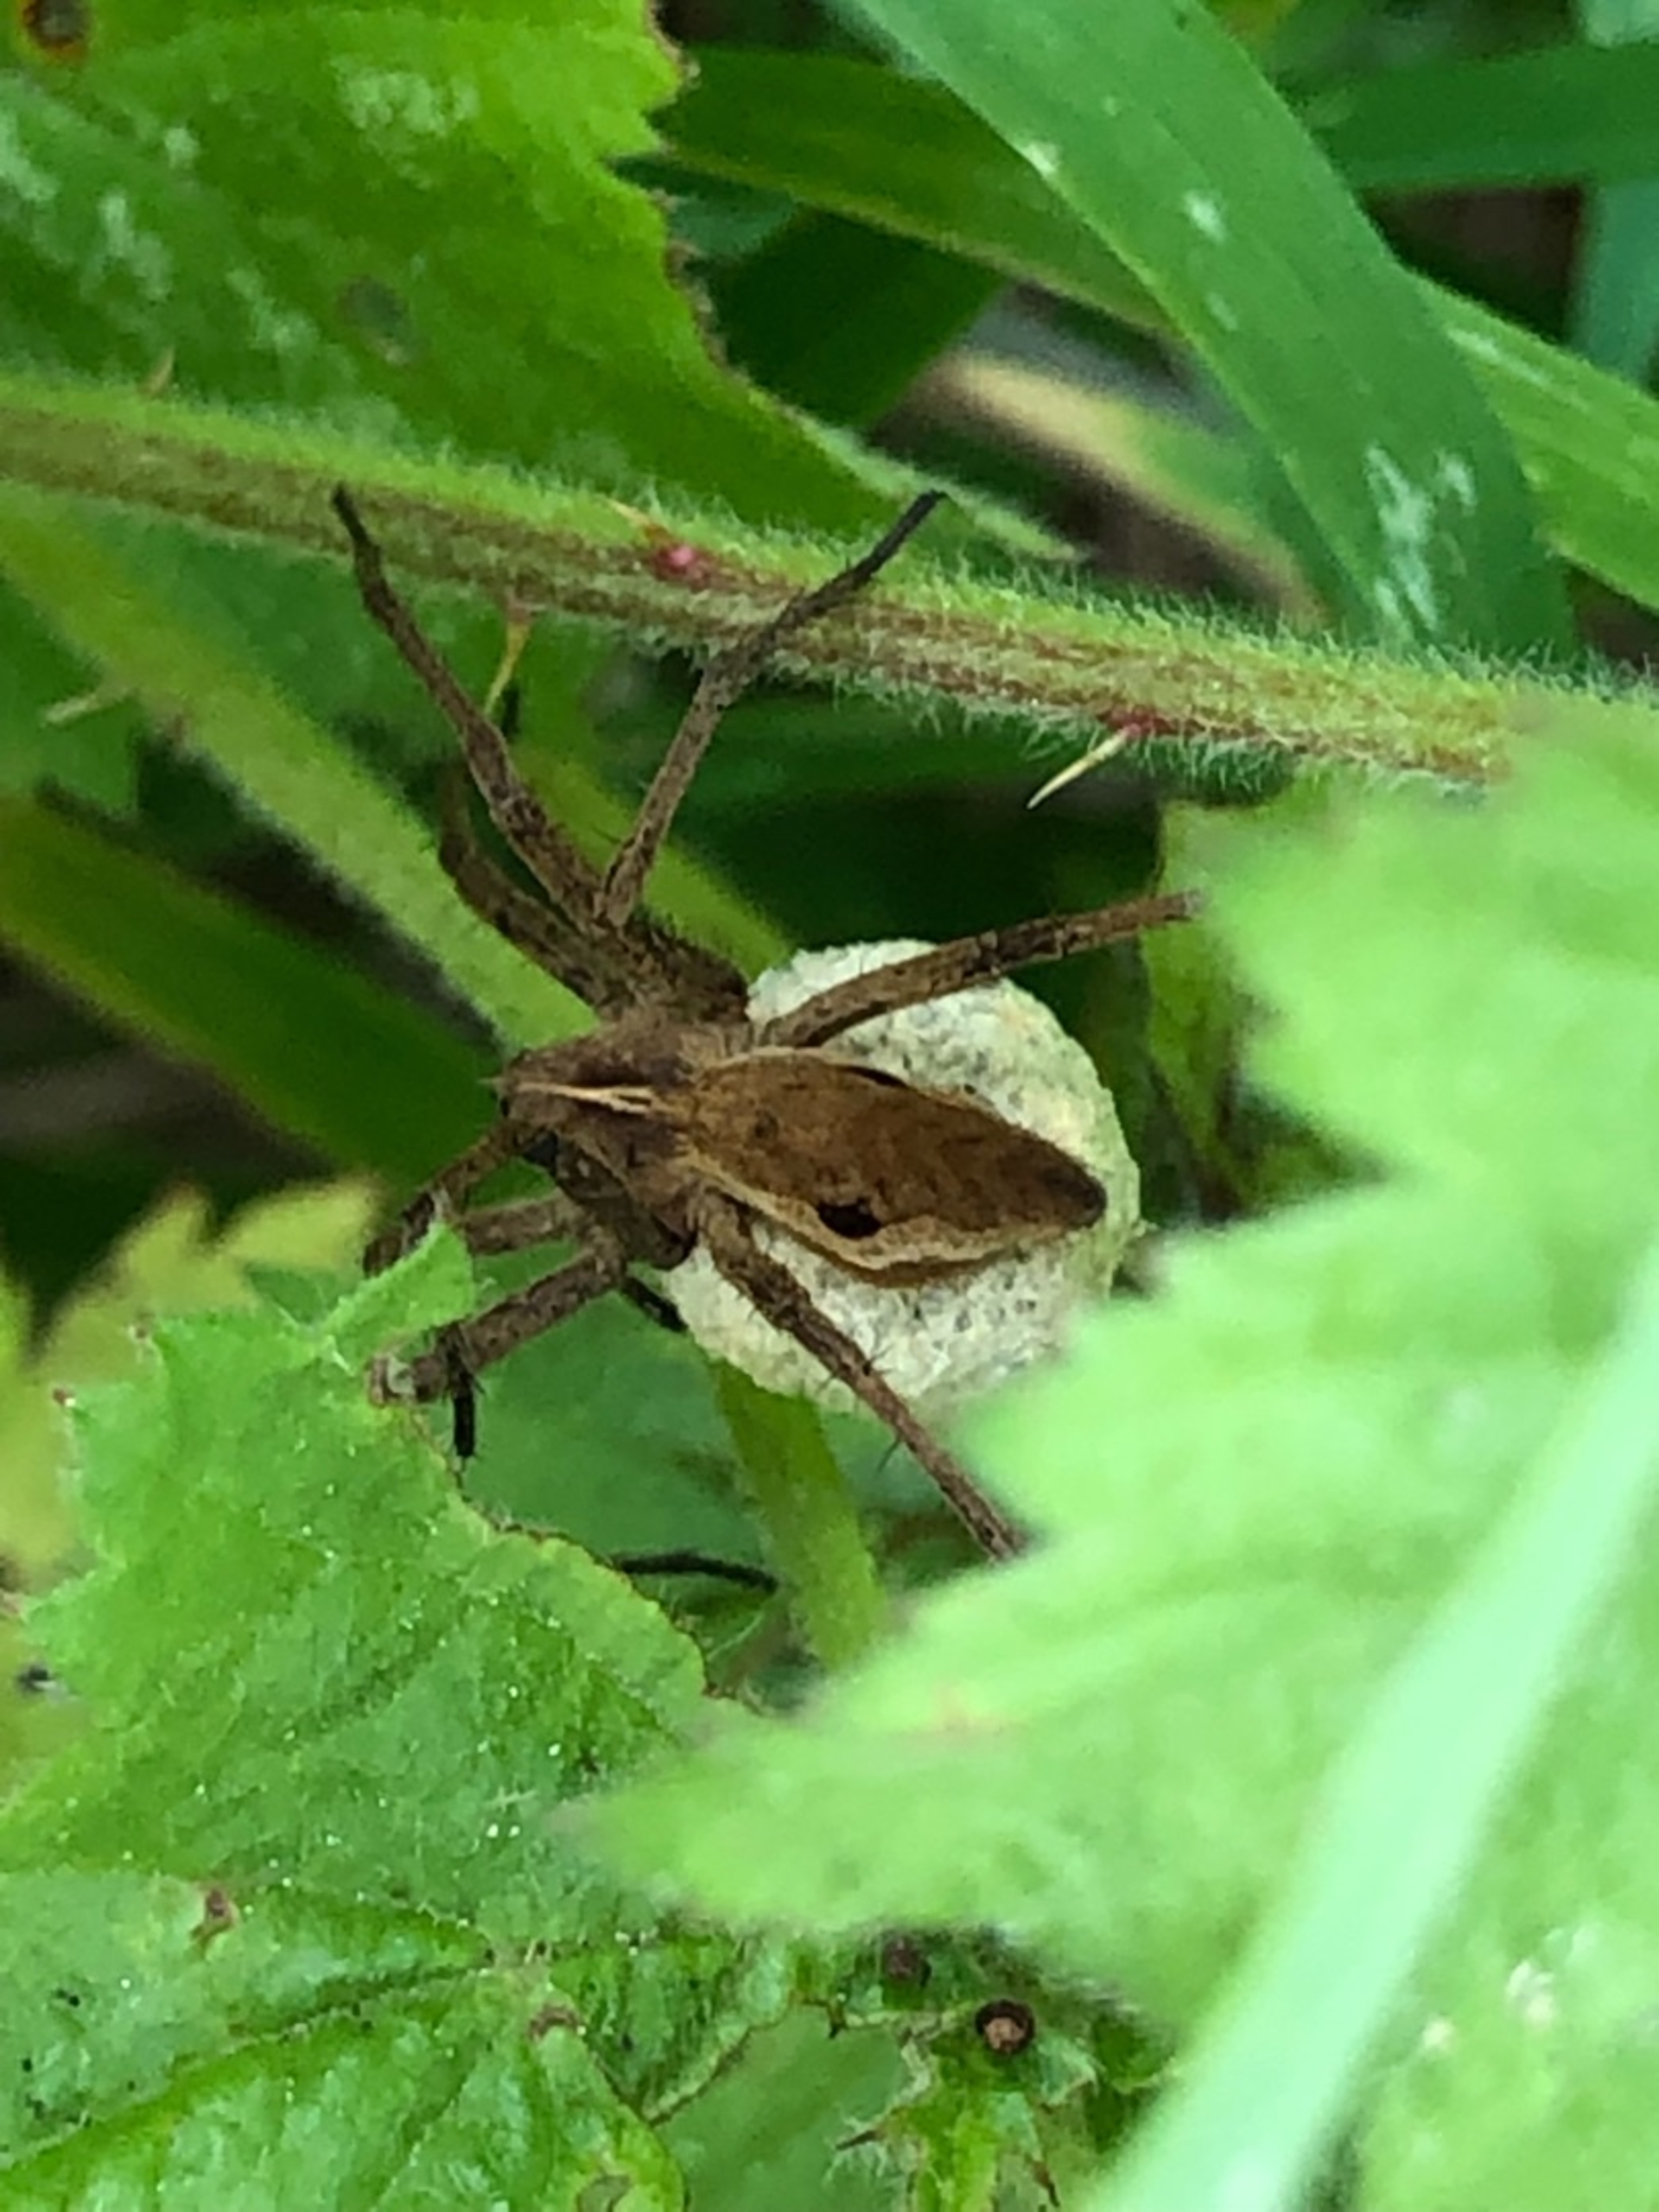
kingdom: Animalia
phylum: Arthropoda
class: Arachnida
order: Araneae
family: Pisauridae
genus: Pisaura
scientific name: Pisaura mirabilis
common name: Almindelig rovedderkop
